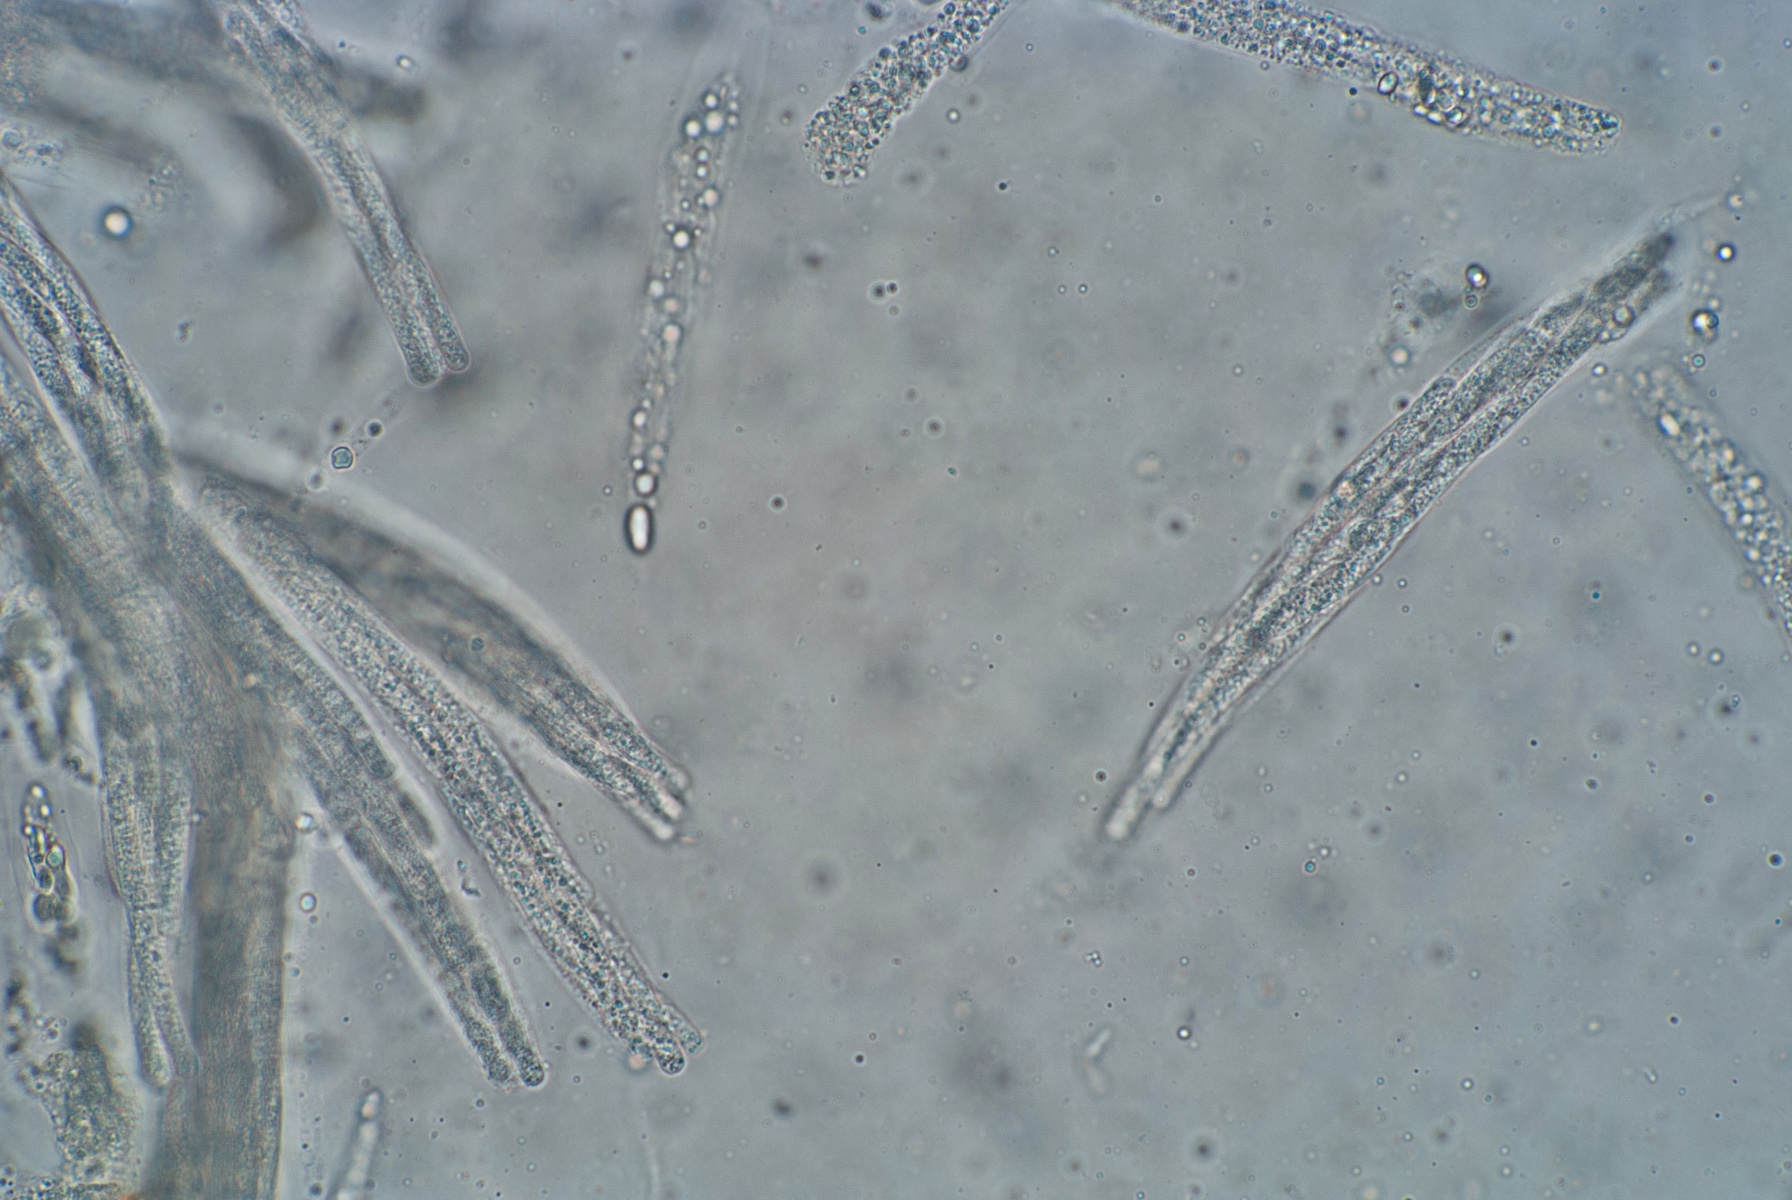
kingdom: Fungi
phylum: Ascomycota
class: Sordariomycetes
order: Diaporthales
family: Gnomoniaceae
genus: Cryptosporella
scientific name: Cryptosporella corylina
